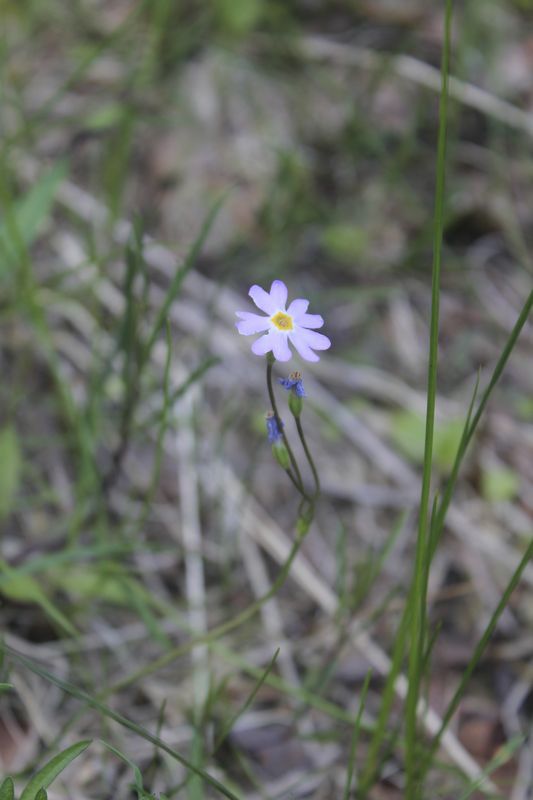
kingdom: Plantae
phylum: Tracheophyta
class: Magnoliopsida
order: Ericales
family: Primulaceae
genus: Primula
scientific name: Primula nutans
